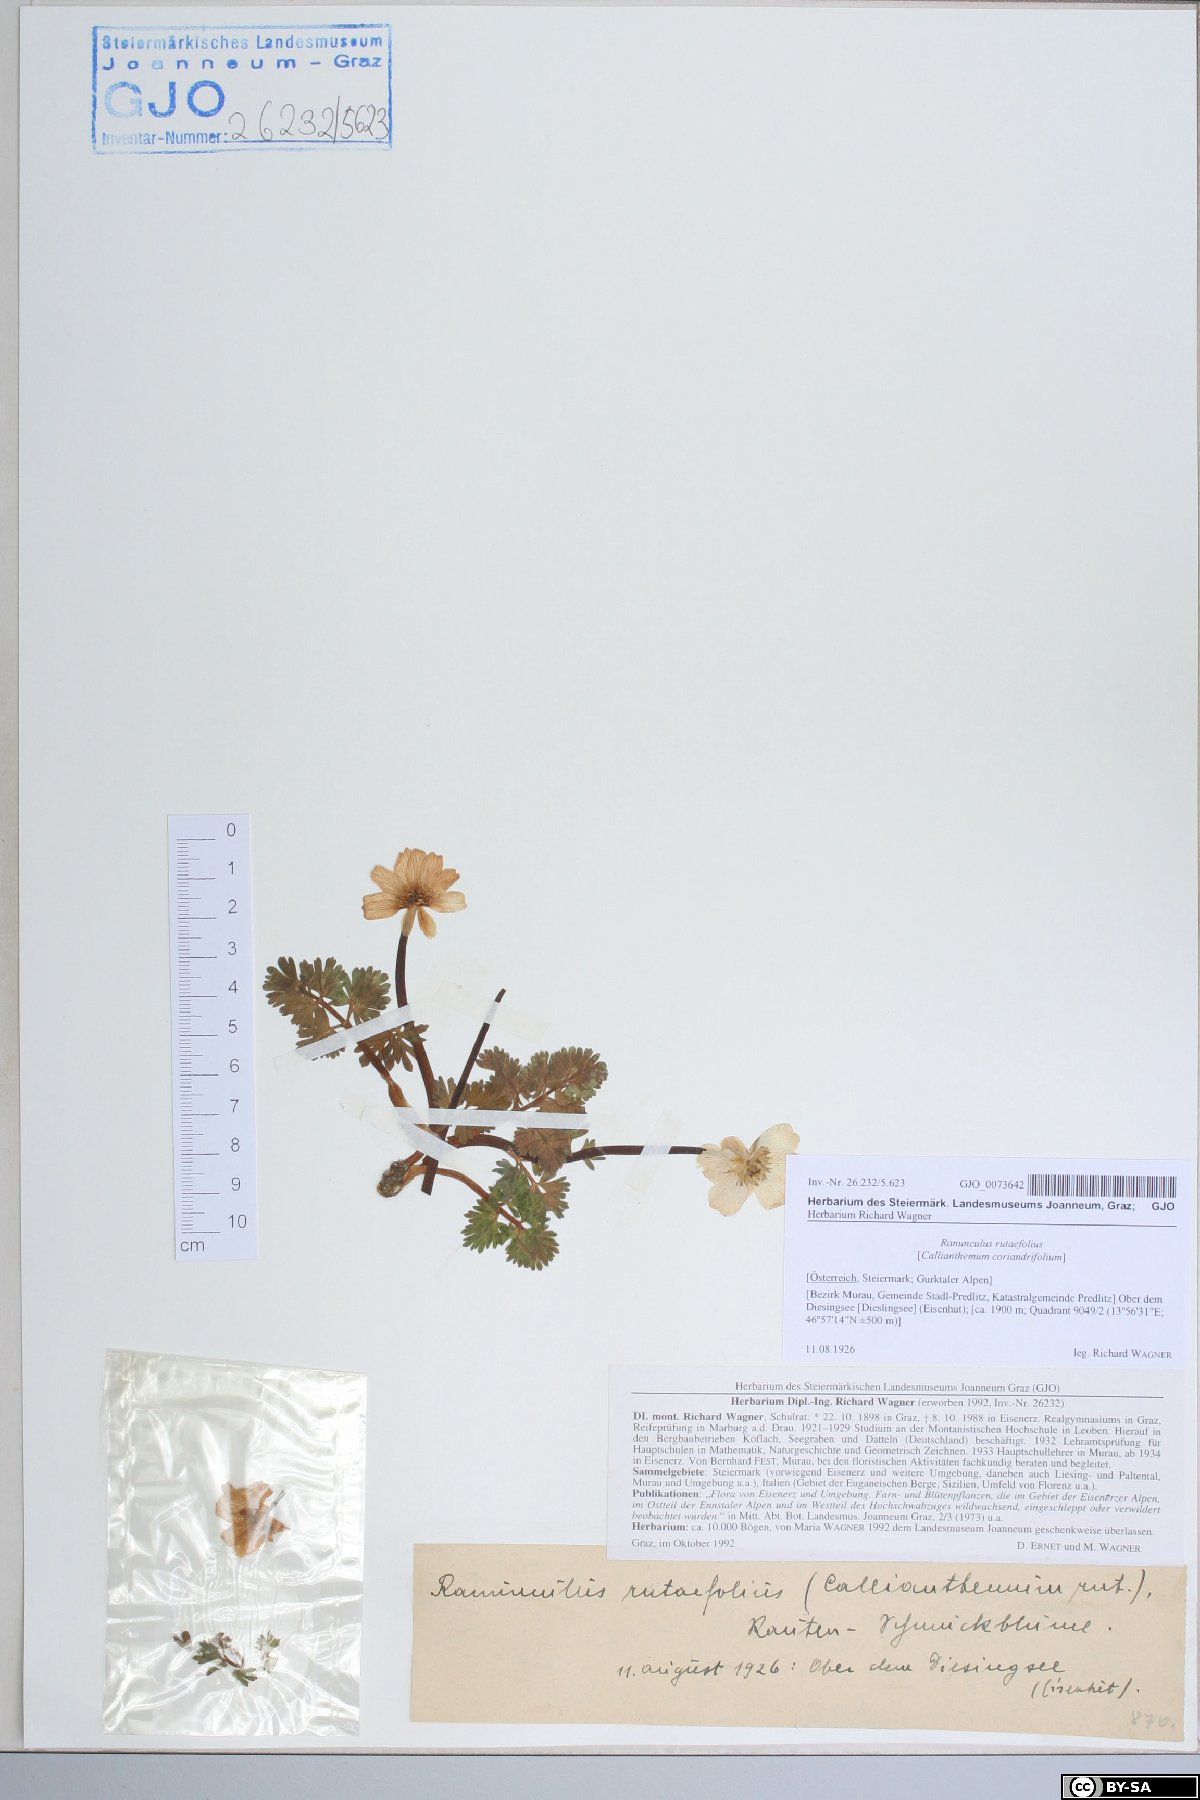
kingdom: Plantae
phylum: Tracheophyta
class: Magnoliopsida
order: Ranunculales
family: Ranunculaceae
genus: Callianthemum
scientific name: Callianthemum anemonoides
